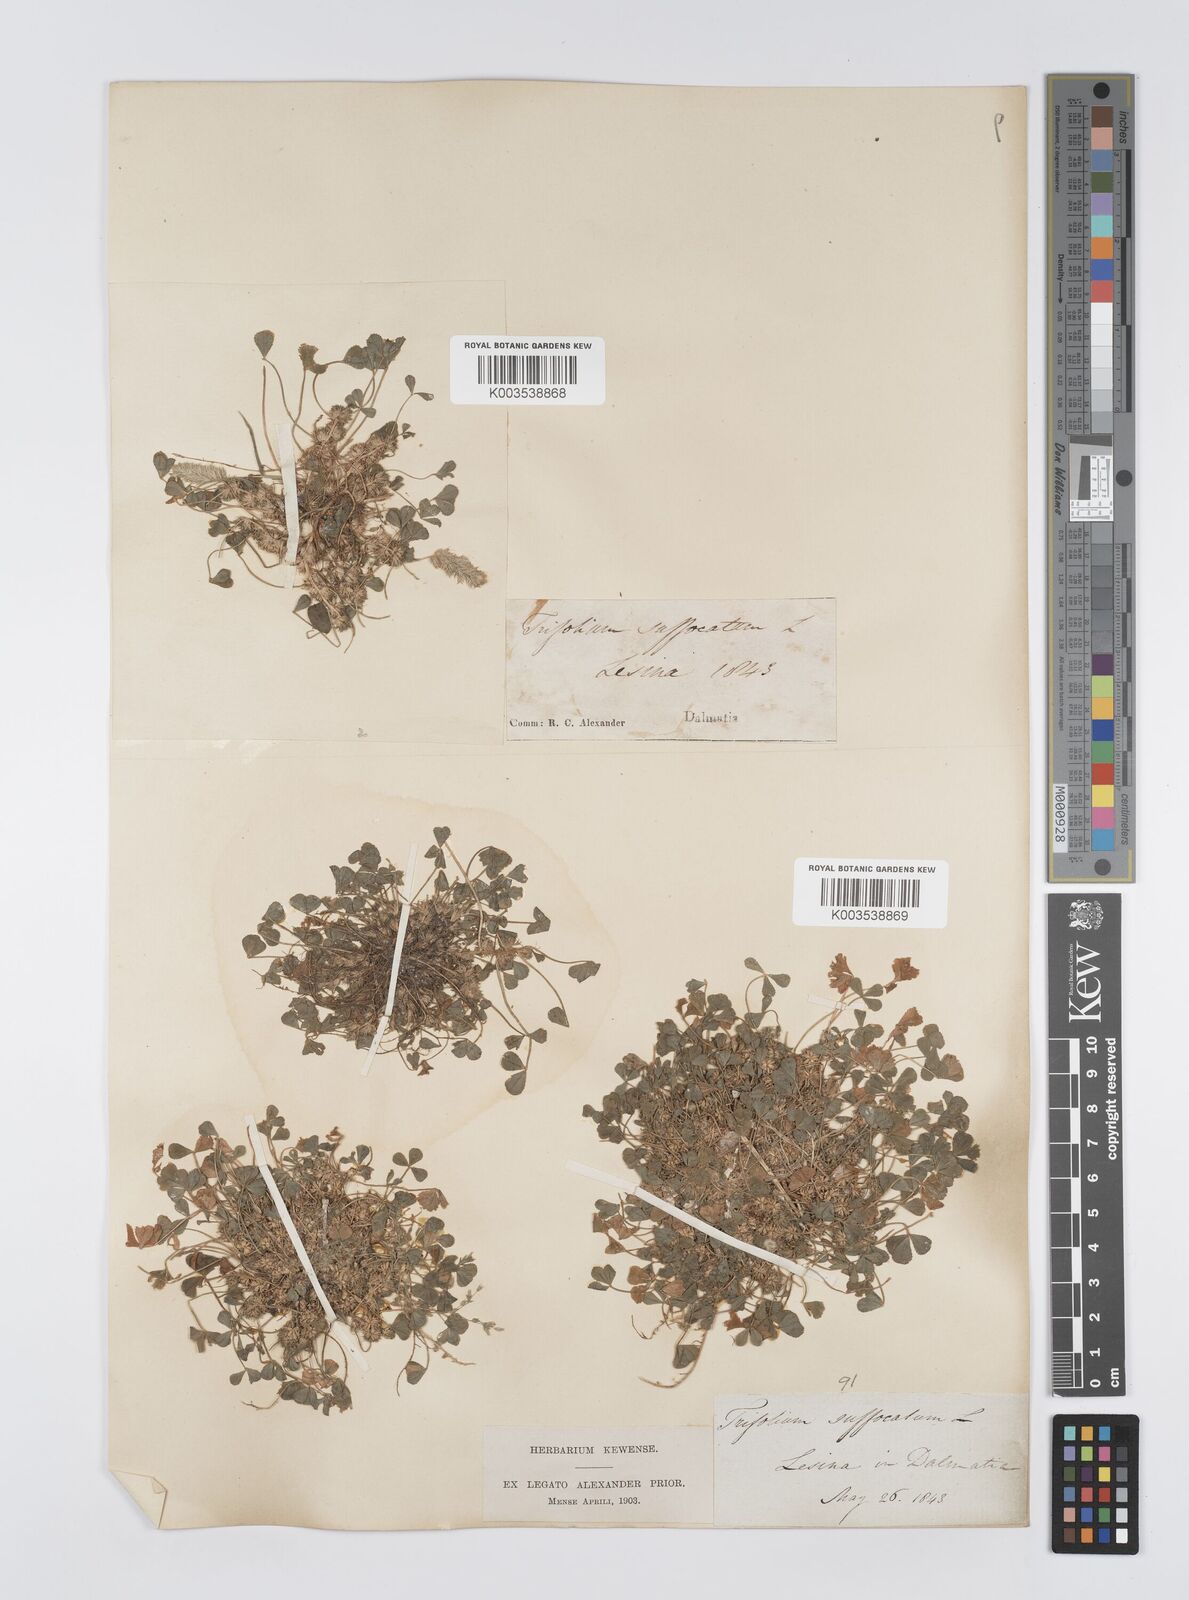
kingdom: Plantae
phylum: Tracheophyta
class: Magnoliopsida
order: Fabales
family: Fabaceae
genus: Trifolium
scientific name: Trifolium suffocatum
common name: Suffocated clover
